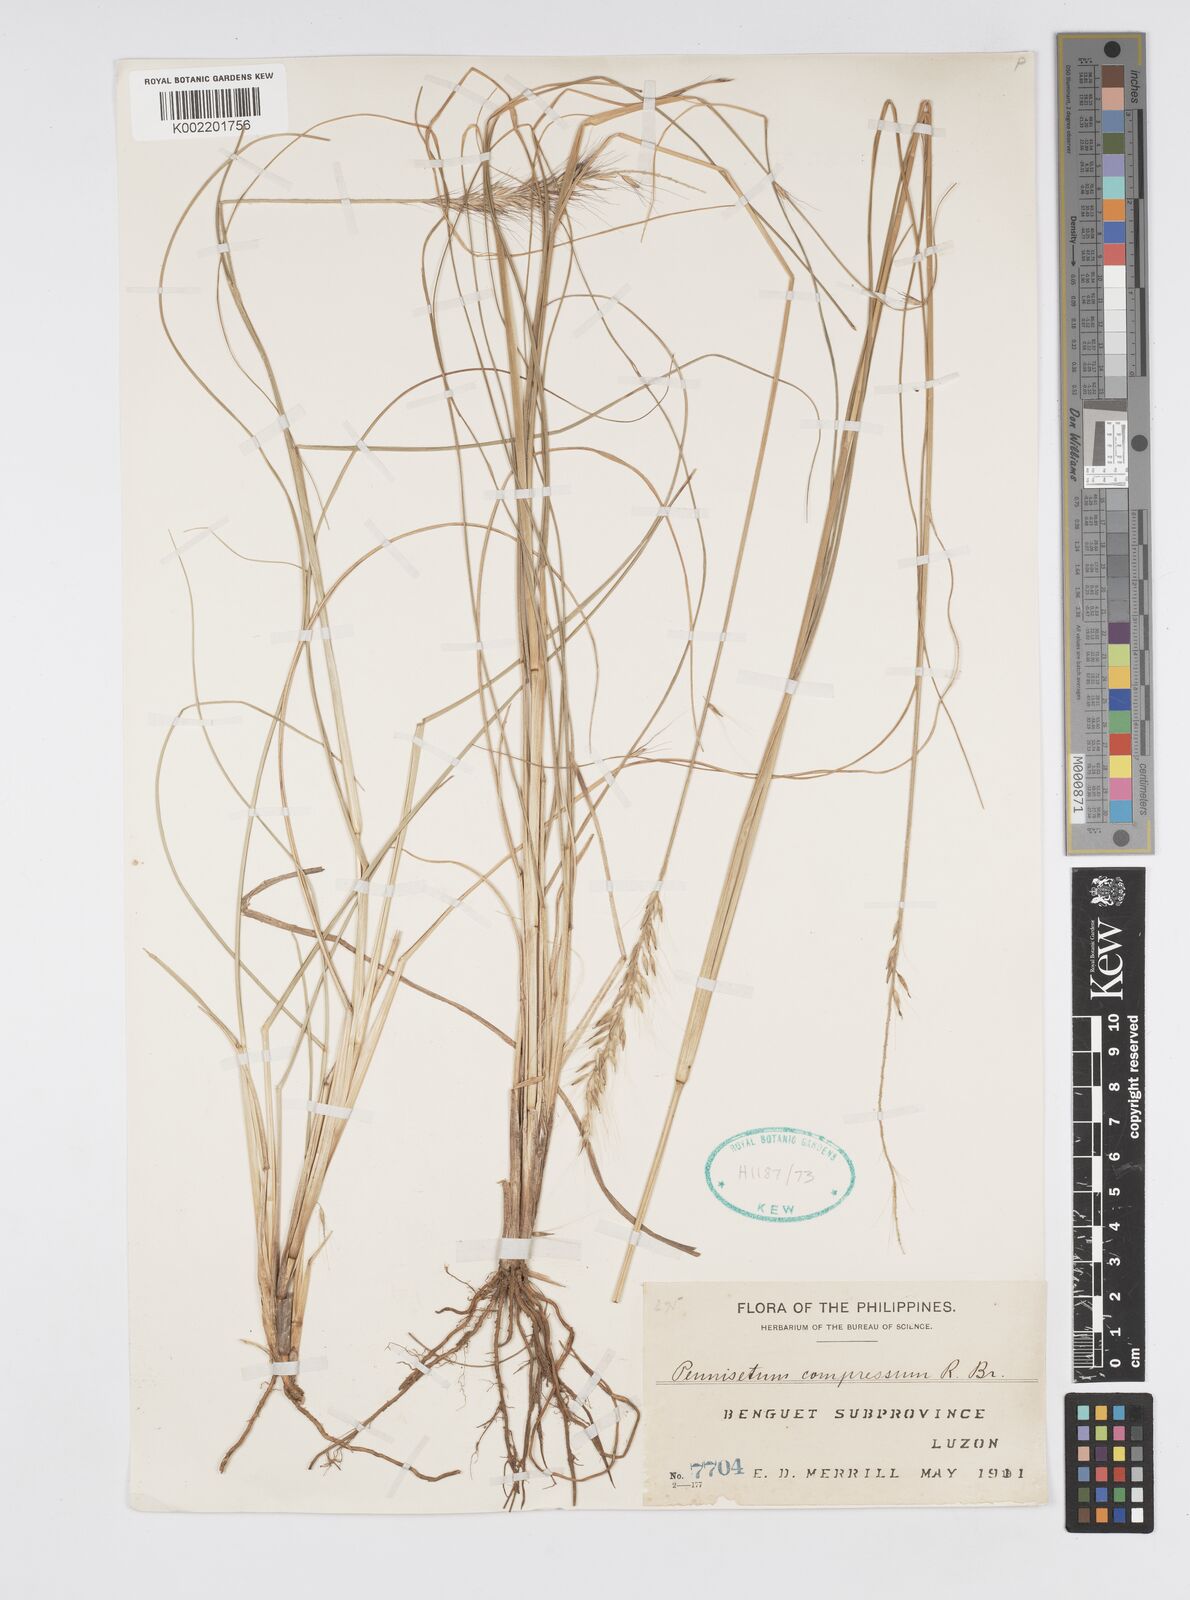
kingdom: Plantae
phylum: Tracheophyta
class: Liliopsida
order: Poales
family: Poaceae
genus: Cenchrus
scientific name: Cenchrus setosus
